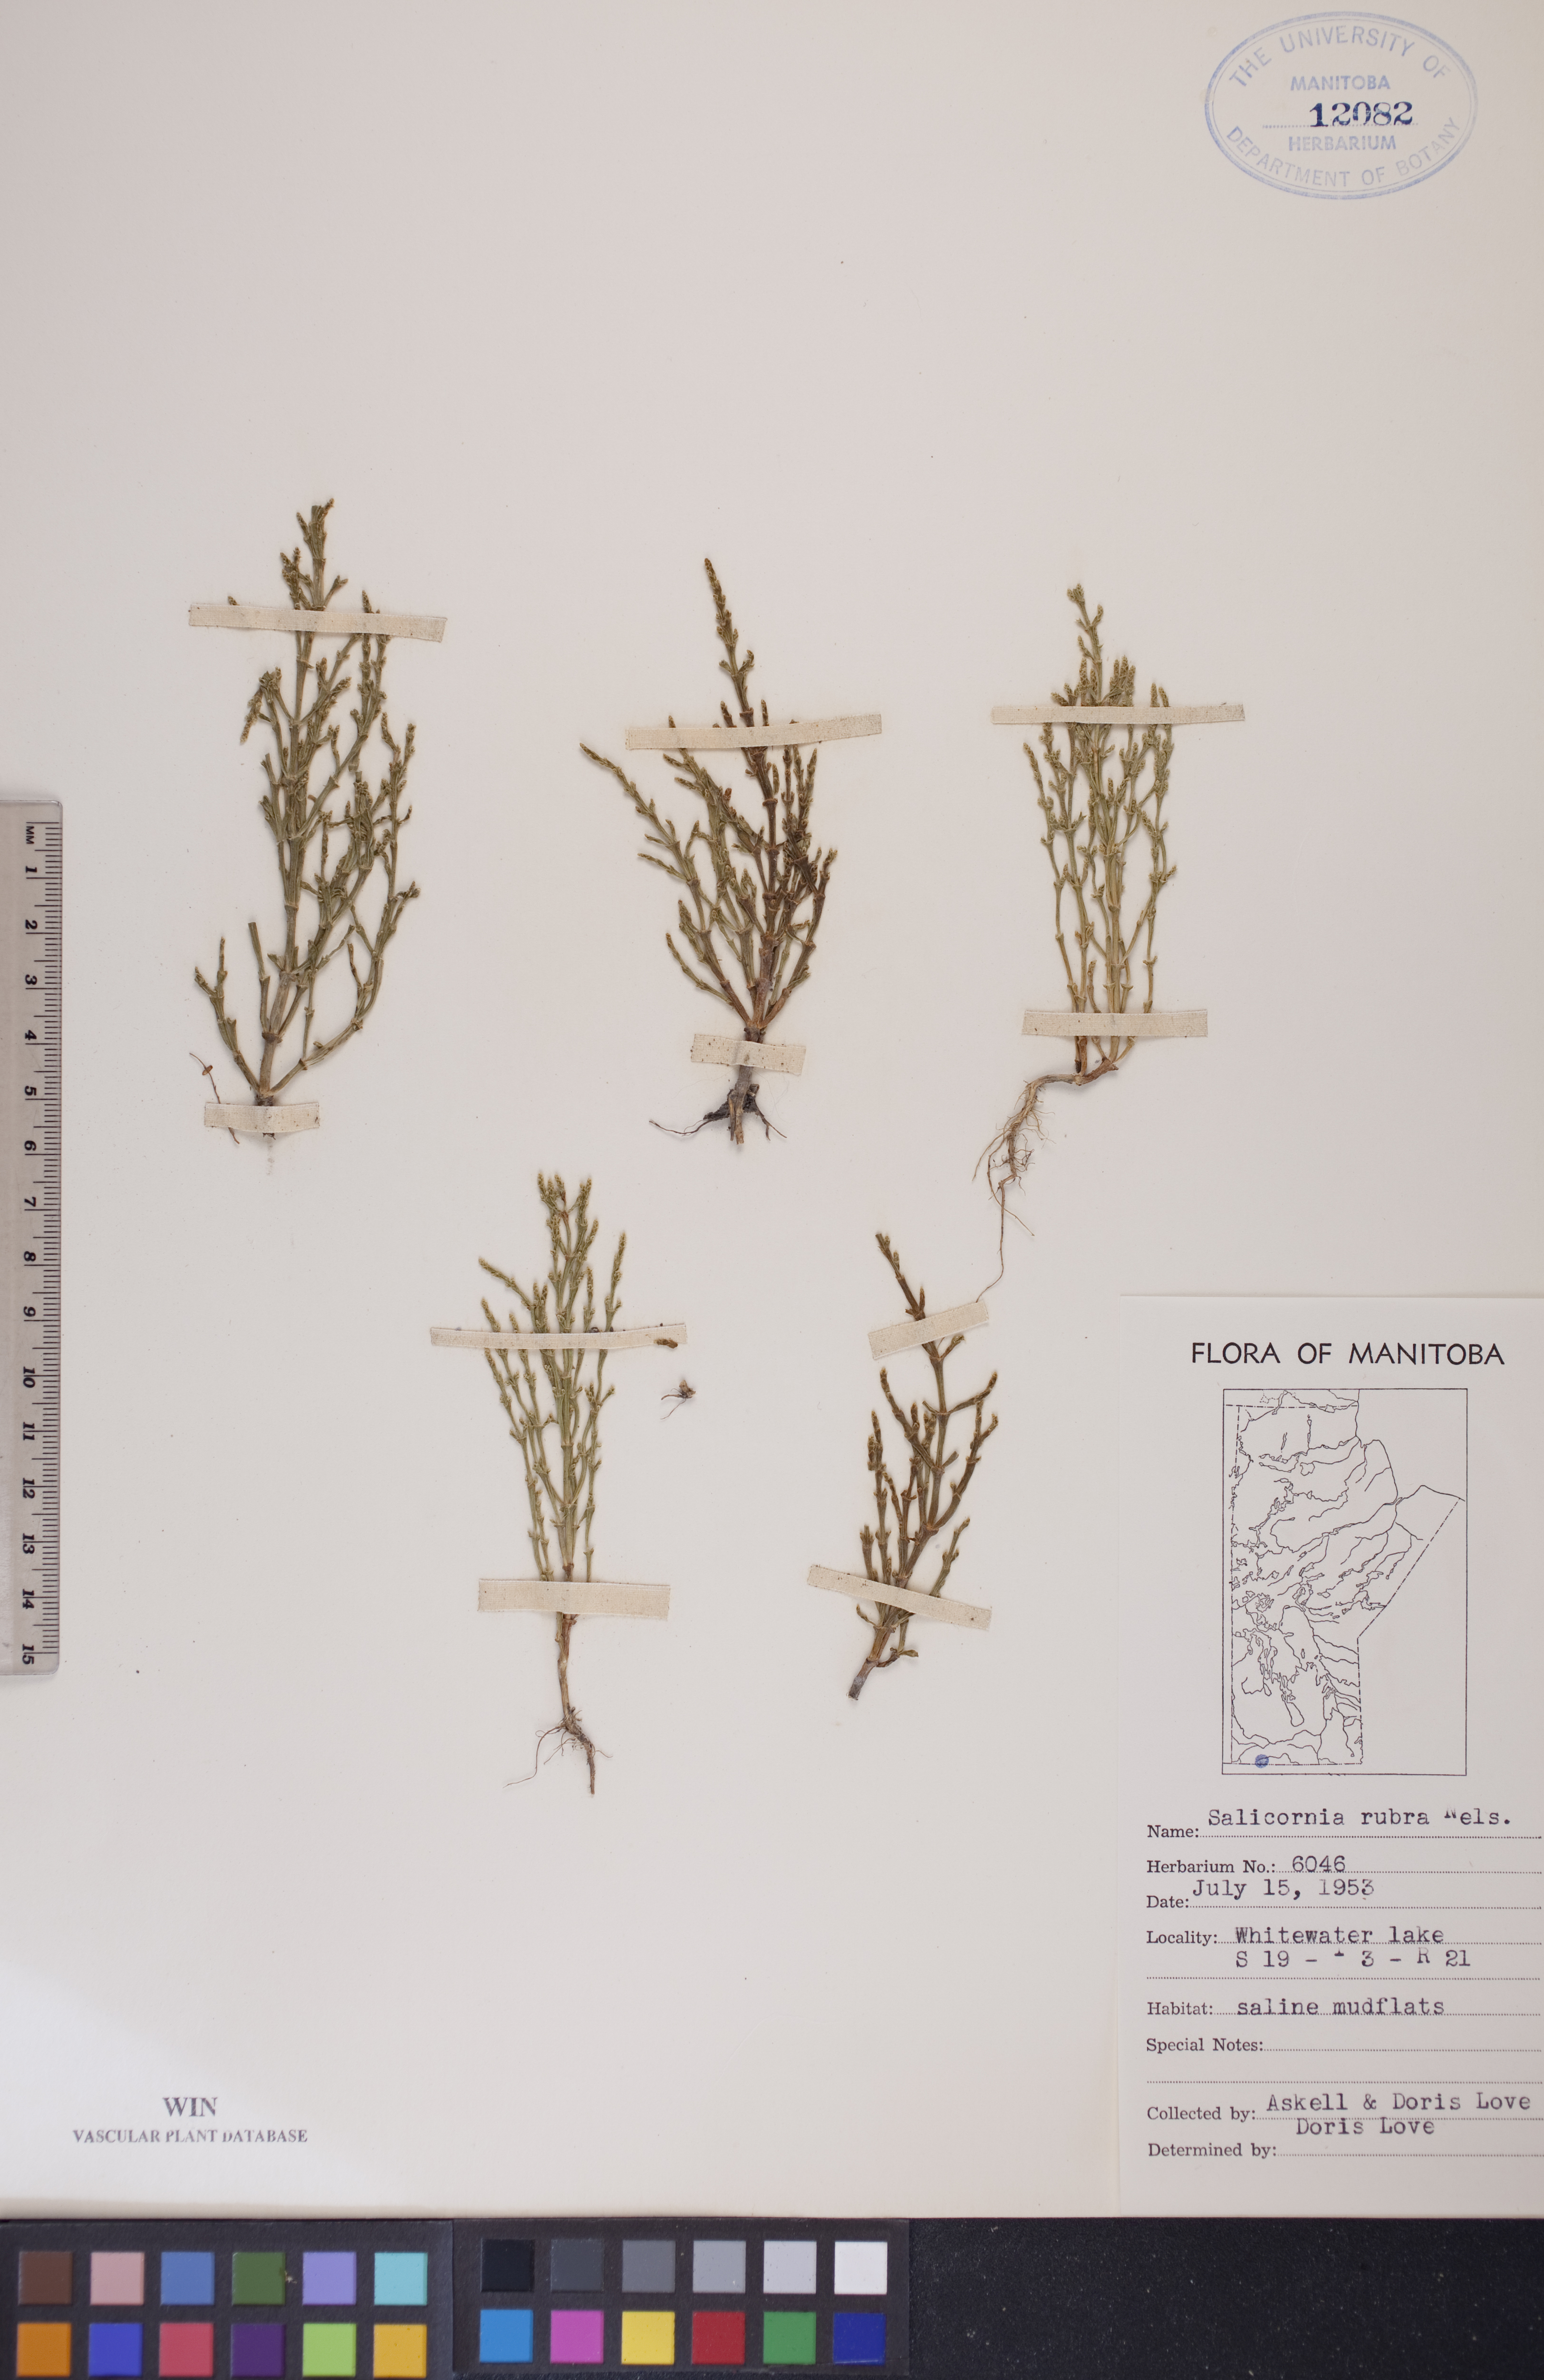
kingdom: Plantae
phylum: Tracheophyta
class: Magnoliopsida
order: Caryophyllales
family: Amaranthaceae
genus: Salicornia
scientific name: Salicornia rubra
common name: Red glasswort
